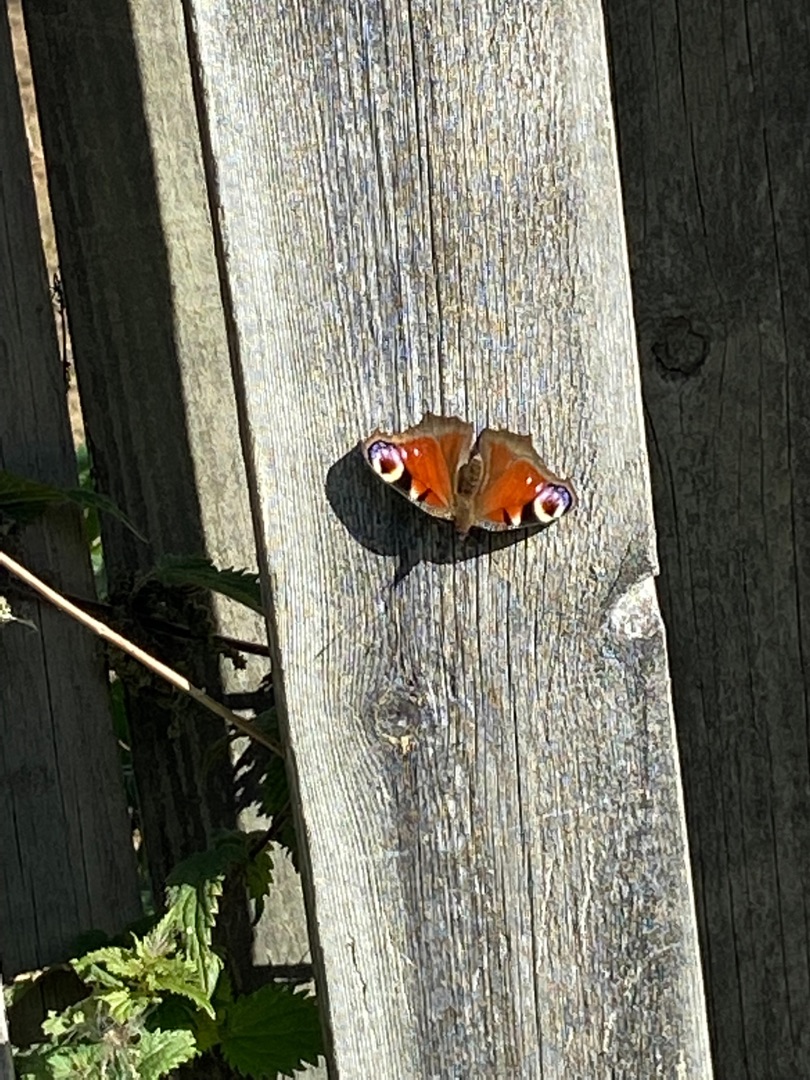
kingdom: Animalia
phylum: Arthropoda
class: Insecta
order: Lepidoptera
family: Nymphalidae
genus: Aglais
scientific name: Aglais io
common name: Dagpåfugleøje
